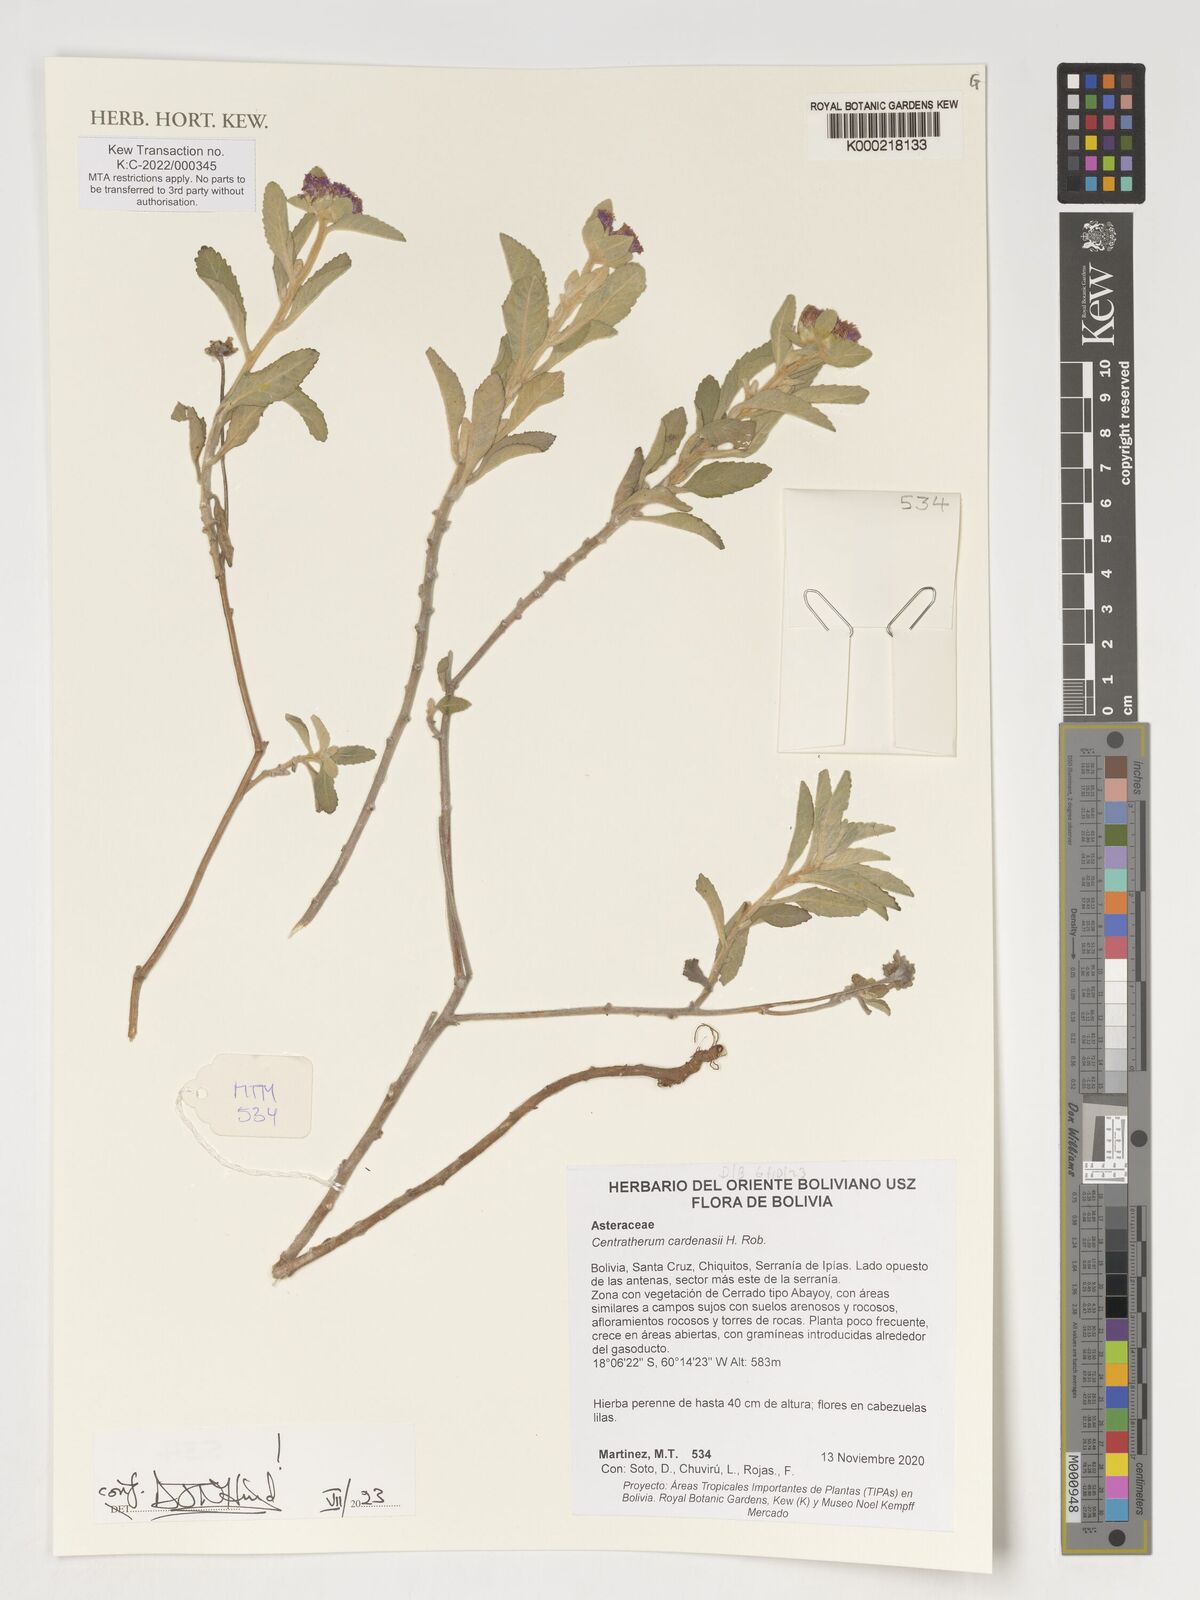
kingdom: Plantae
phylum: Tracheophyta
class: Magnoliopsida
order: Asterales
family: Asteraceae
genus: Centratherum
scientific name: Centratherum cardenasii
